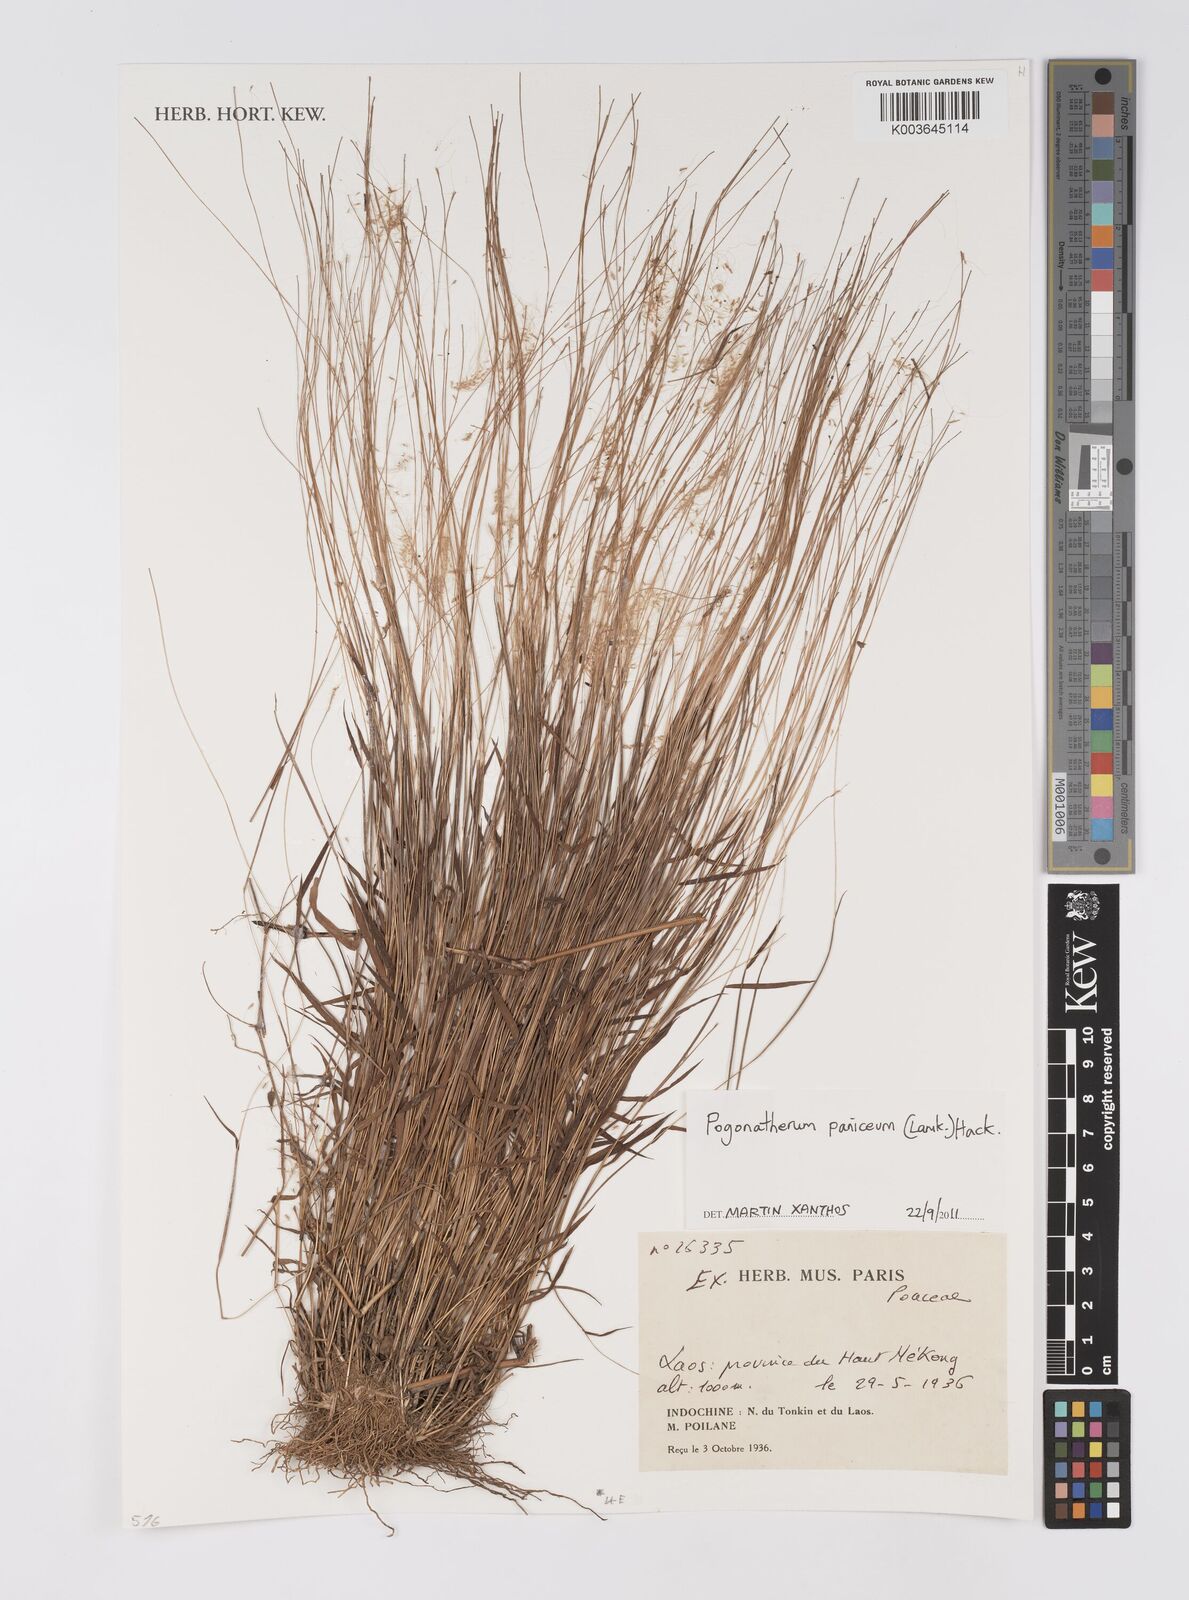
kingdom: Plantae
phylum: Tracheophyta
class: Liliopsida
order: Poales
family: Poaceae
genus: Pogonatherum
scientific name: Pogonatherum paniceum
